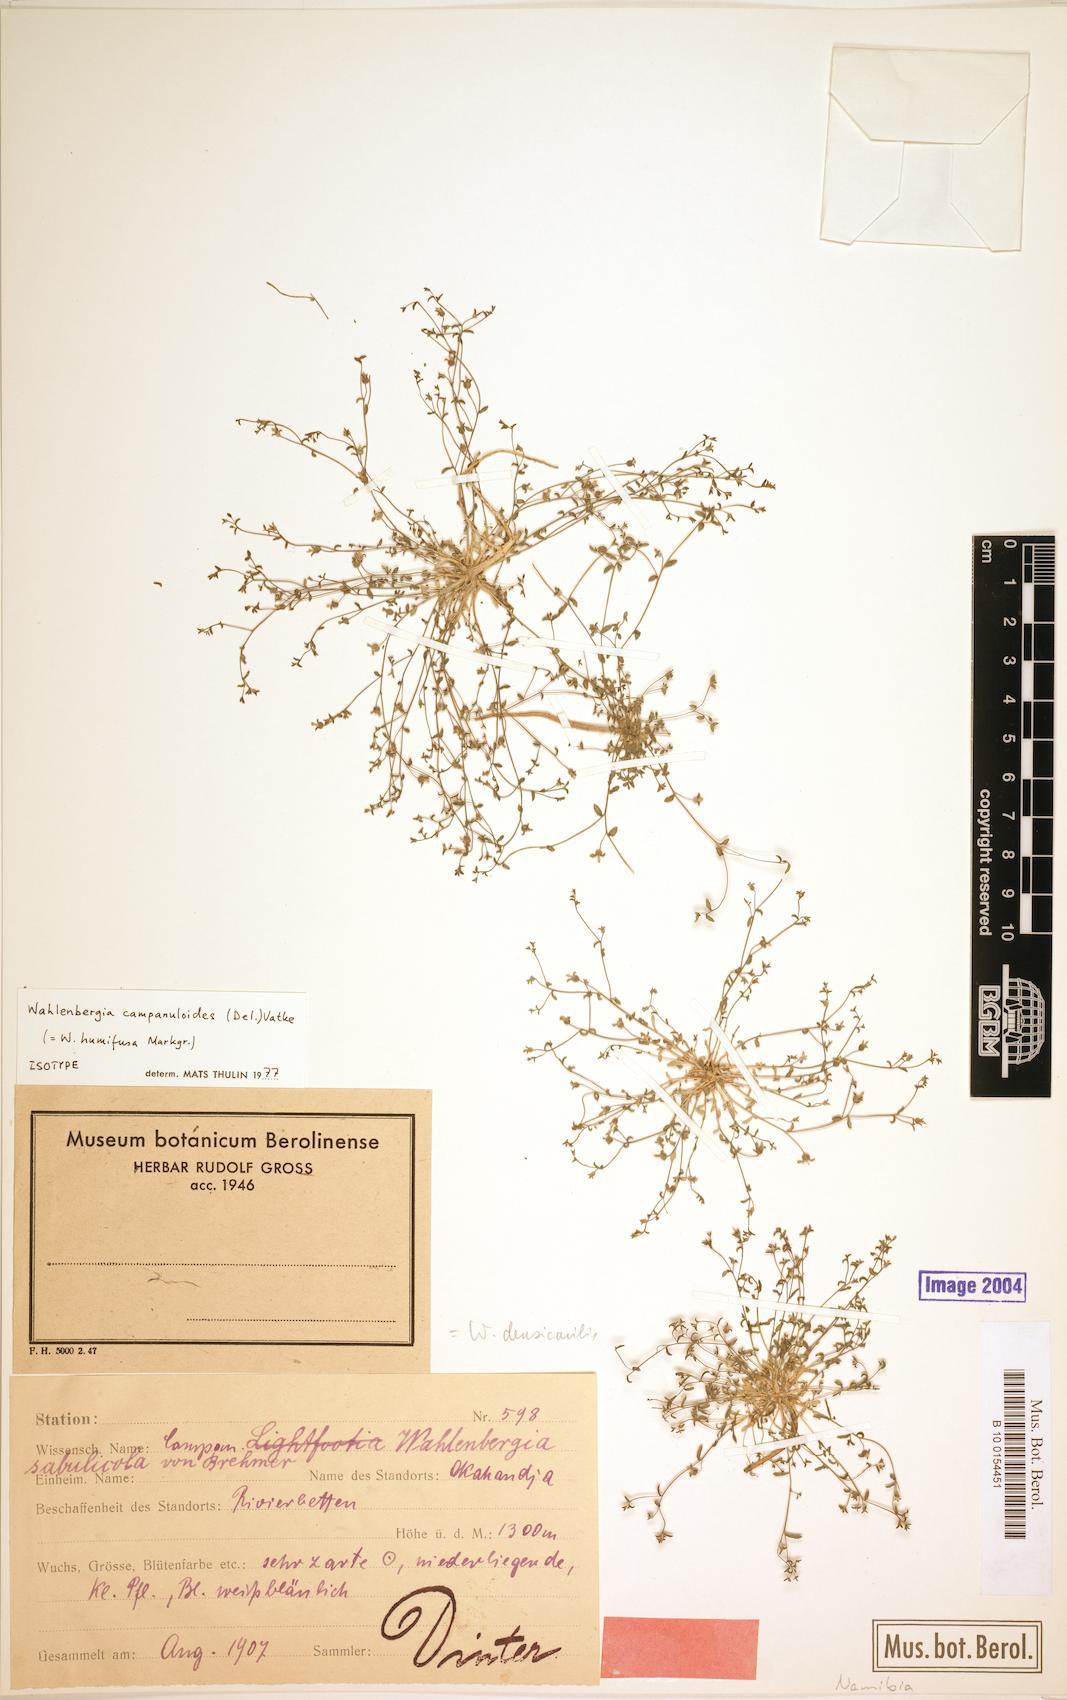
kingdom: Plantae
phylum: Tracheophyta
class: Magnoliopsida
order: Asterales
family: Campanulaceae
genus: Wahlenbergia
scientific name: Wahlenbergia campanuloides
